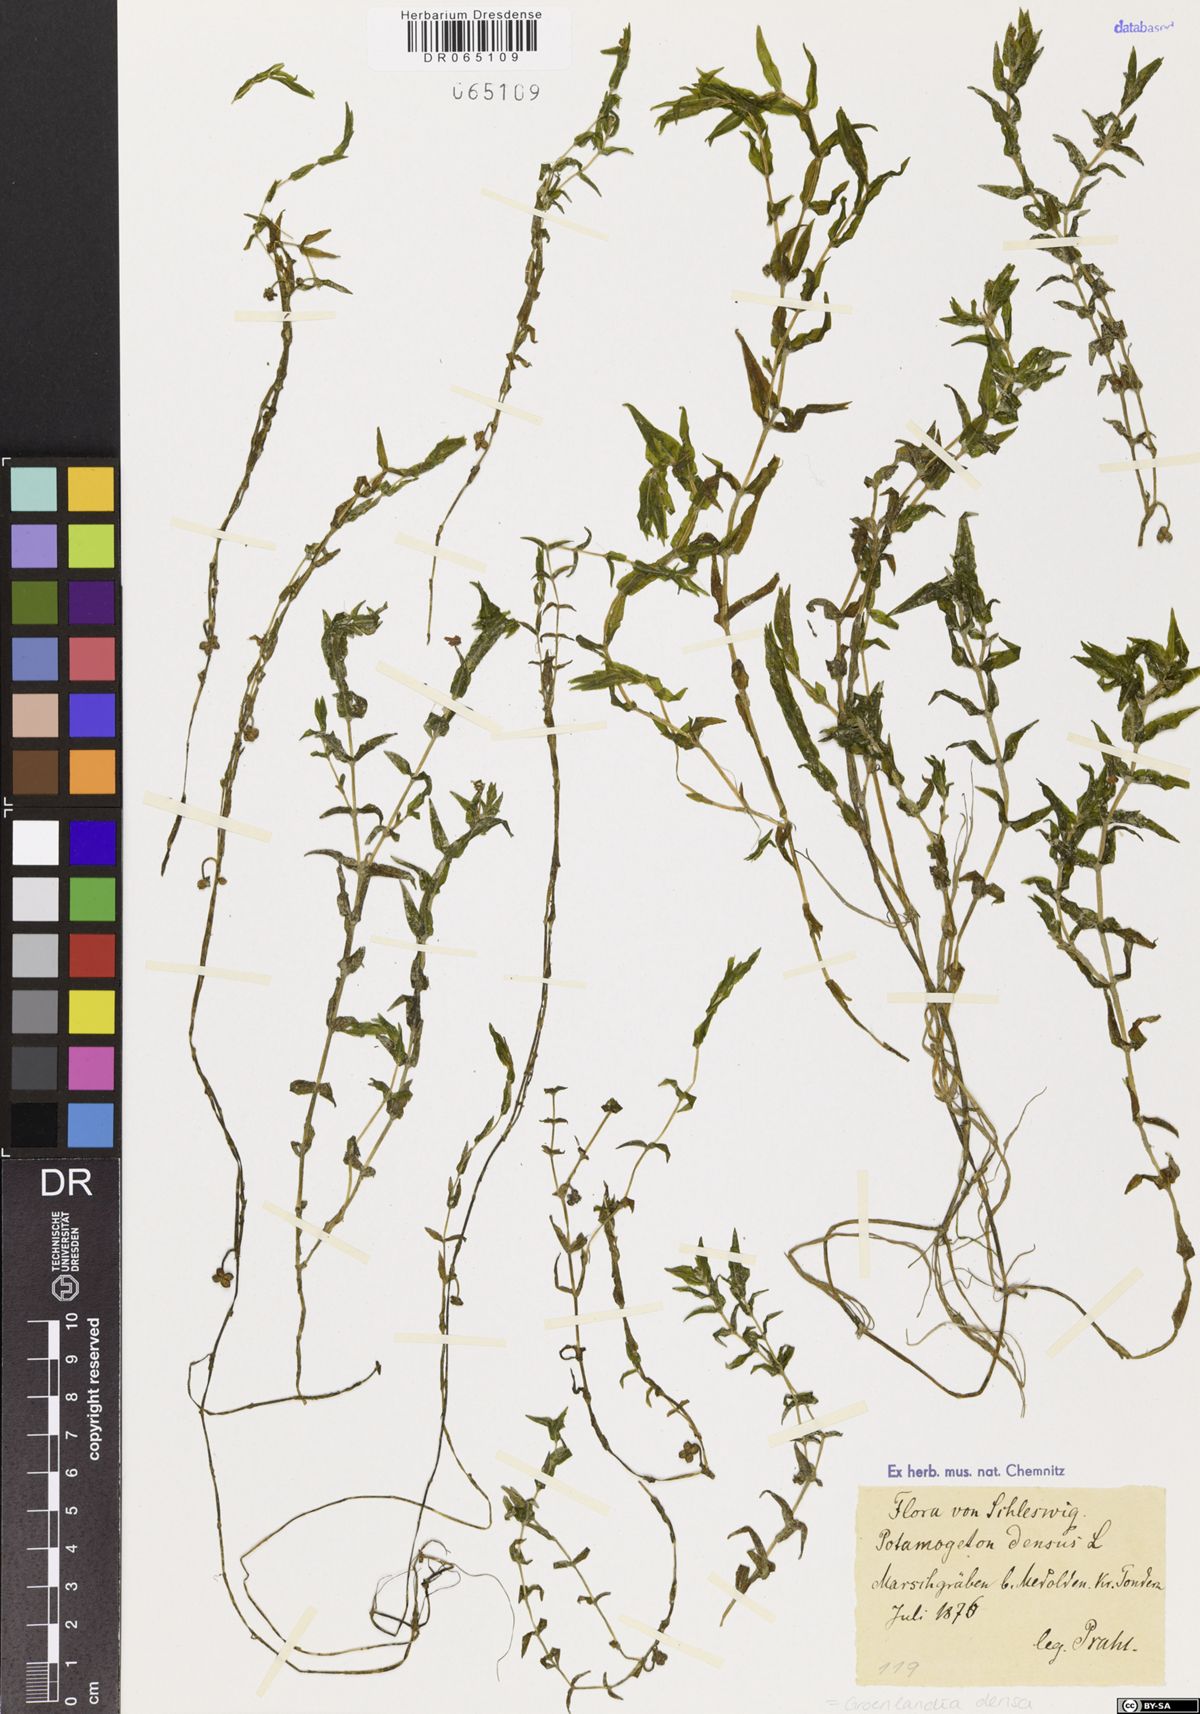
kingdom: Plantae
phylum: Tracheophyta
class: Liliopsida
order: Alismatales
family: Potamogetonaceae
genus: Groenlandia
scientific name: Groenlandia densa
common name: Opposite-leaved pondweed
